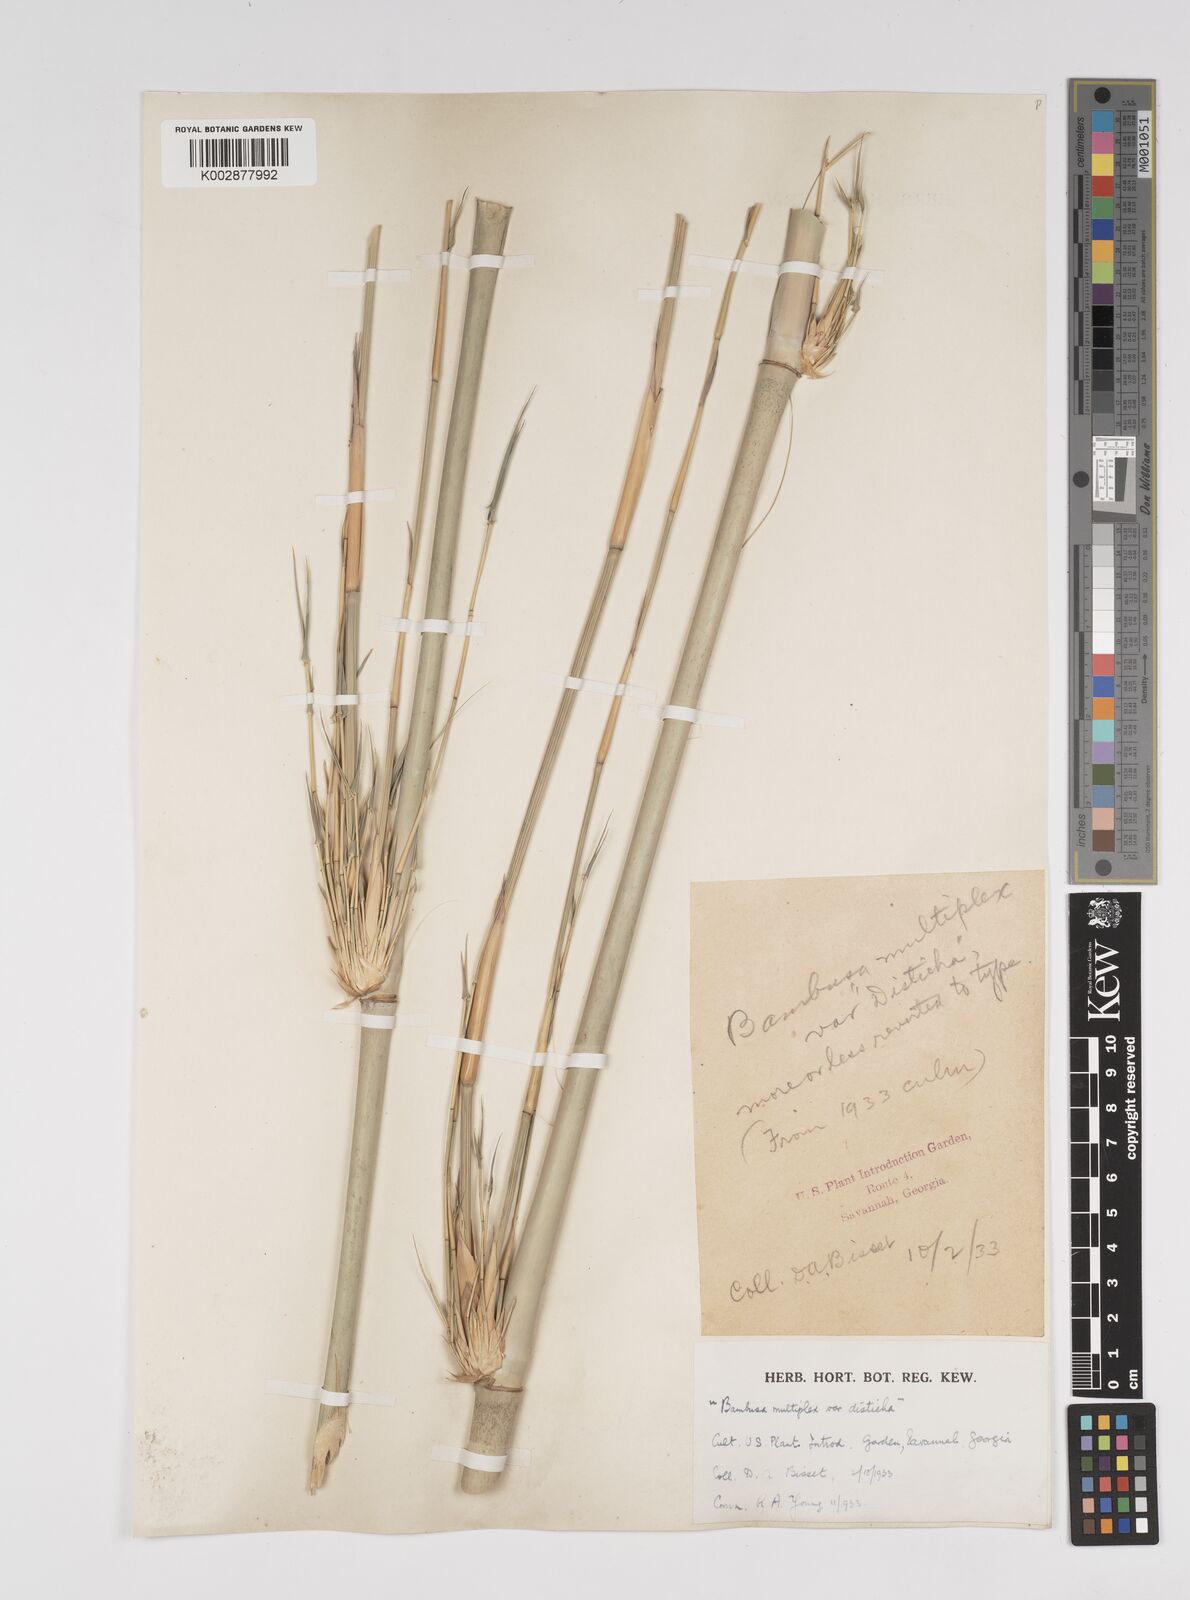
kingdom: Plantae
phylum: Tracheophyta
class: Liliopsida
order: Poales
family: Poaceae
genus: Bambusa
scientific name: Bambusa
